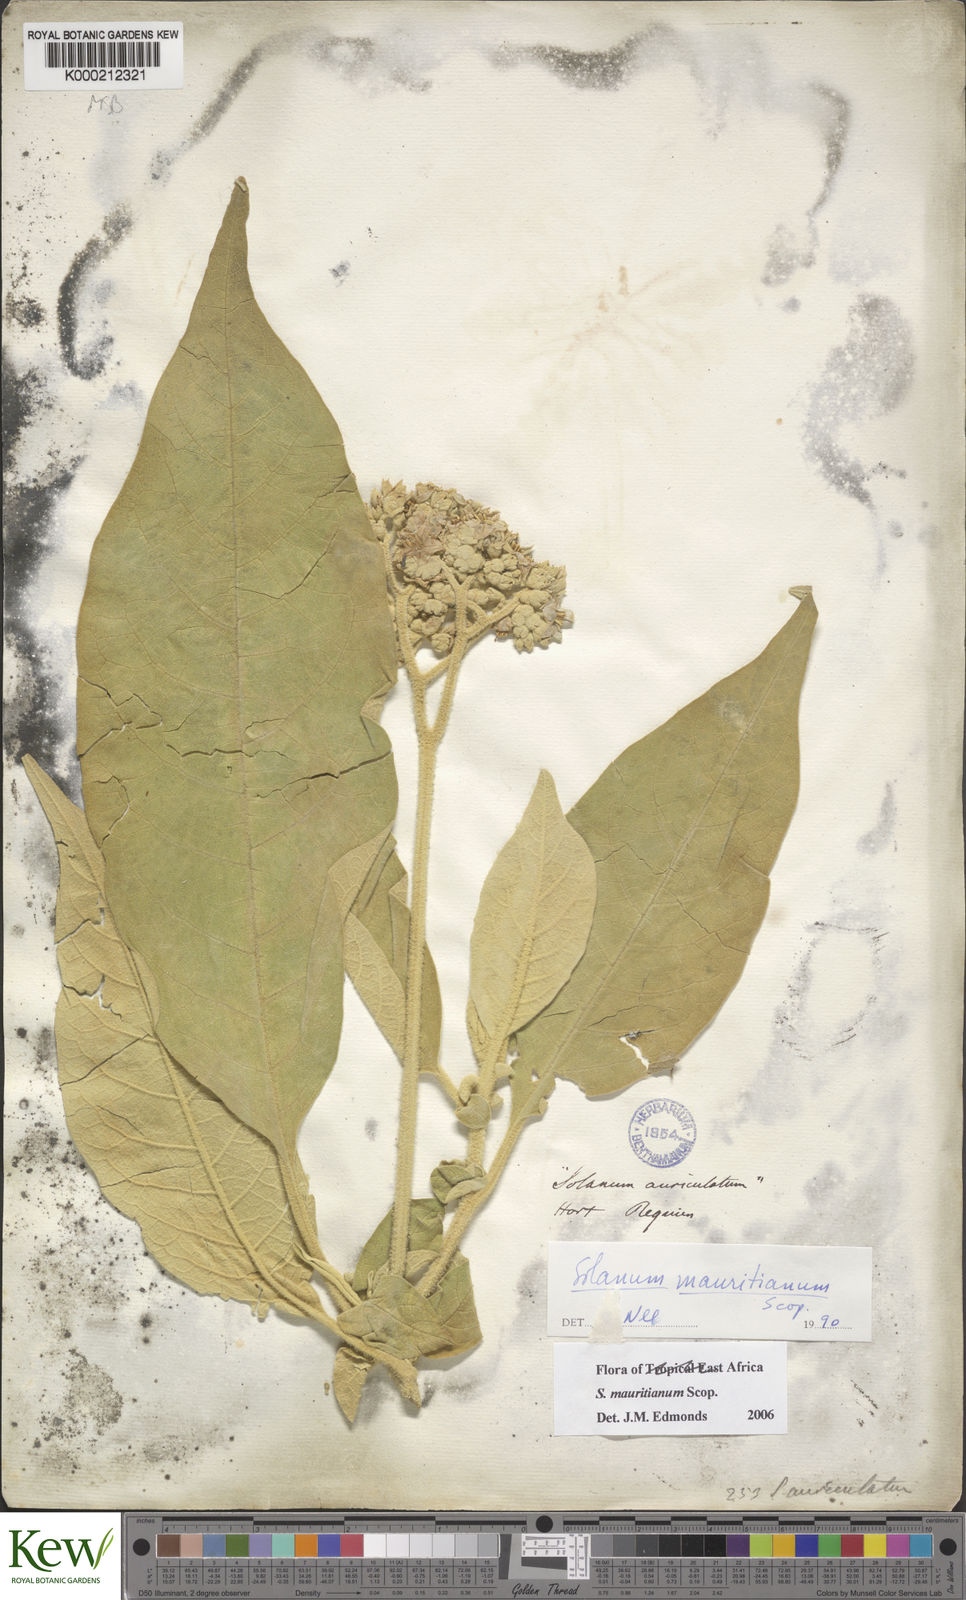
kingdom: Plantae
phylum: Tracheophyta
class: Magnoliopsida
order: Solanales
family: Solanaceae
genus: Solanum
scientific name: Solanum mauritianum
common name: Earleaf nightshade
